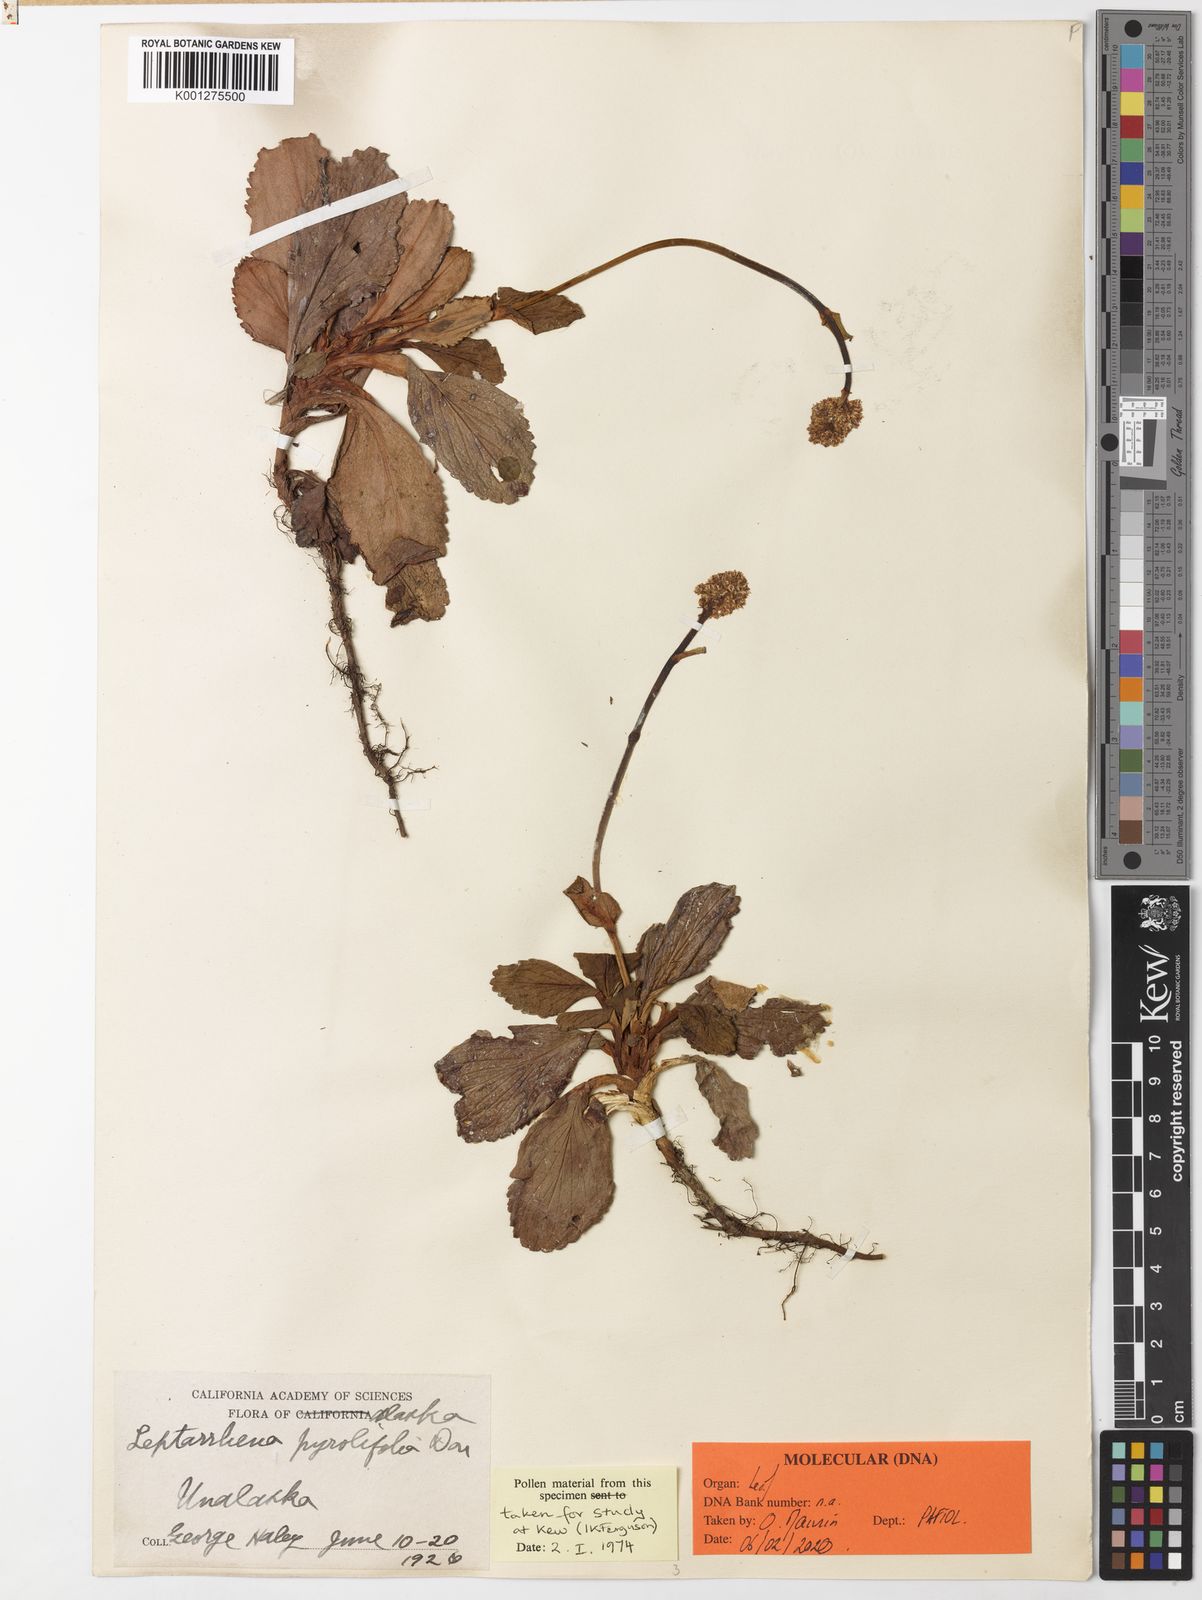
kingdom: Plantae
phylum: Tracheophyta
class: Magnoliopsida
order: Saxifragales
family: Saxifragaceae
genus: Leptarrhena
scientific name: Leptarrhena pyrolifolia
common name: Leatherleaf-saxifrage
